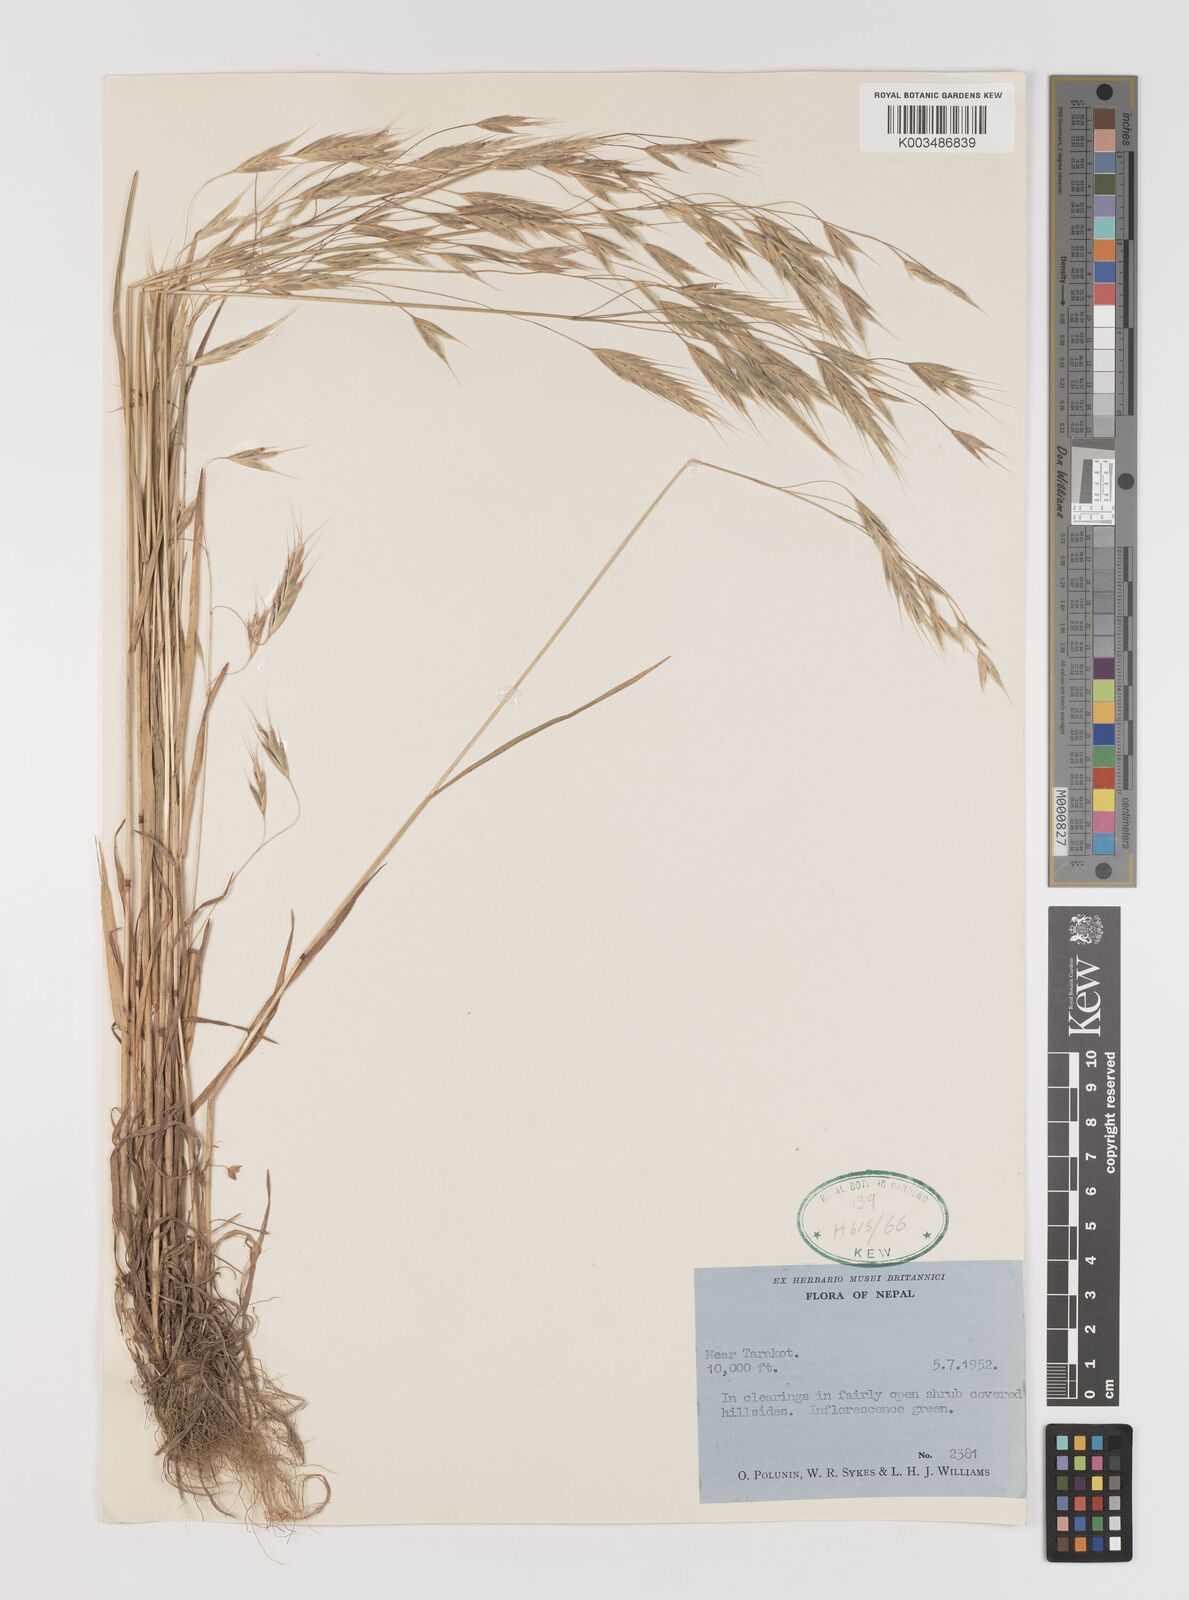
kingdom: Plantae
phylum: Tracheophyta
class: Liliopsida
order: Poales
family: Poaceae
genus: Bromus
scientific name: Bromus
